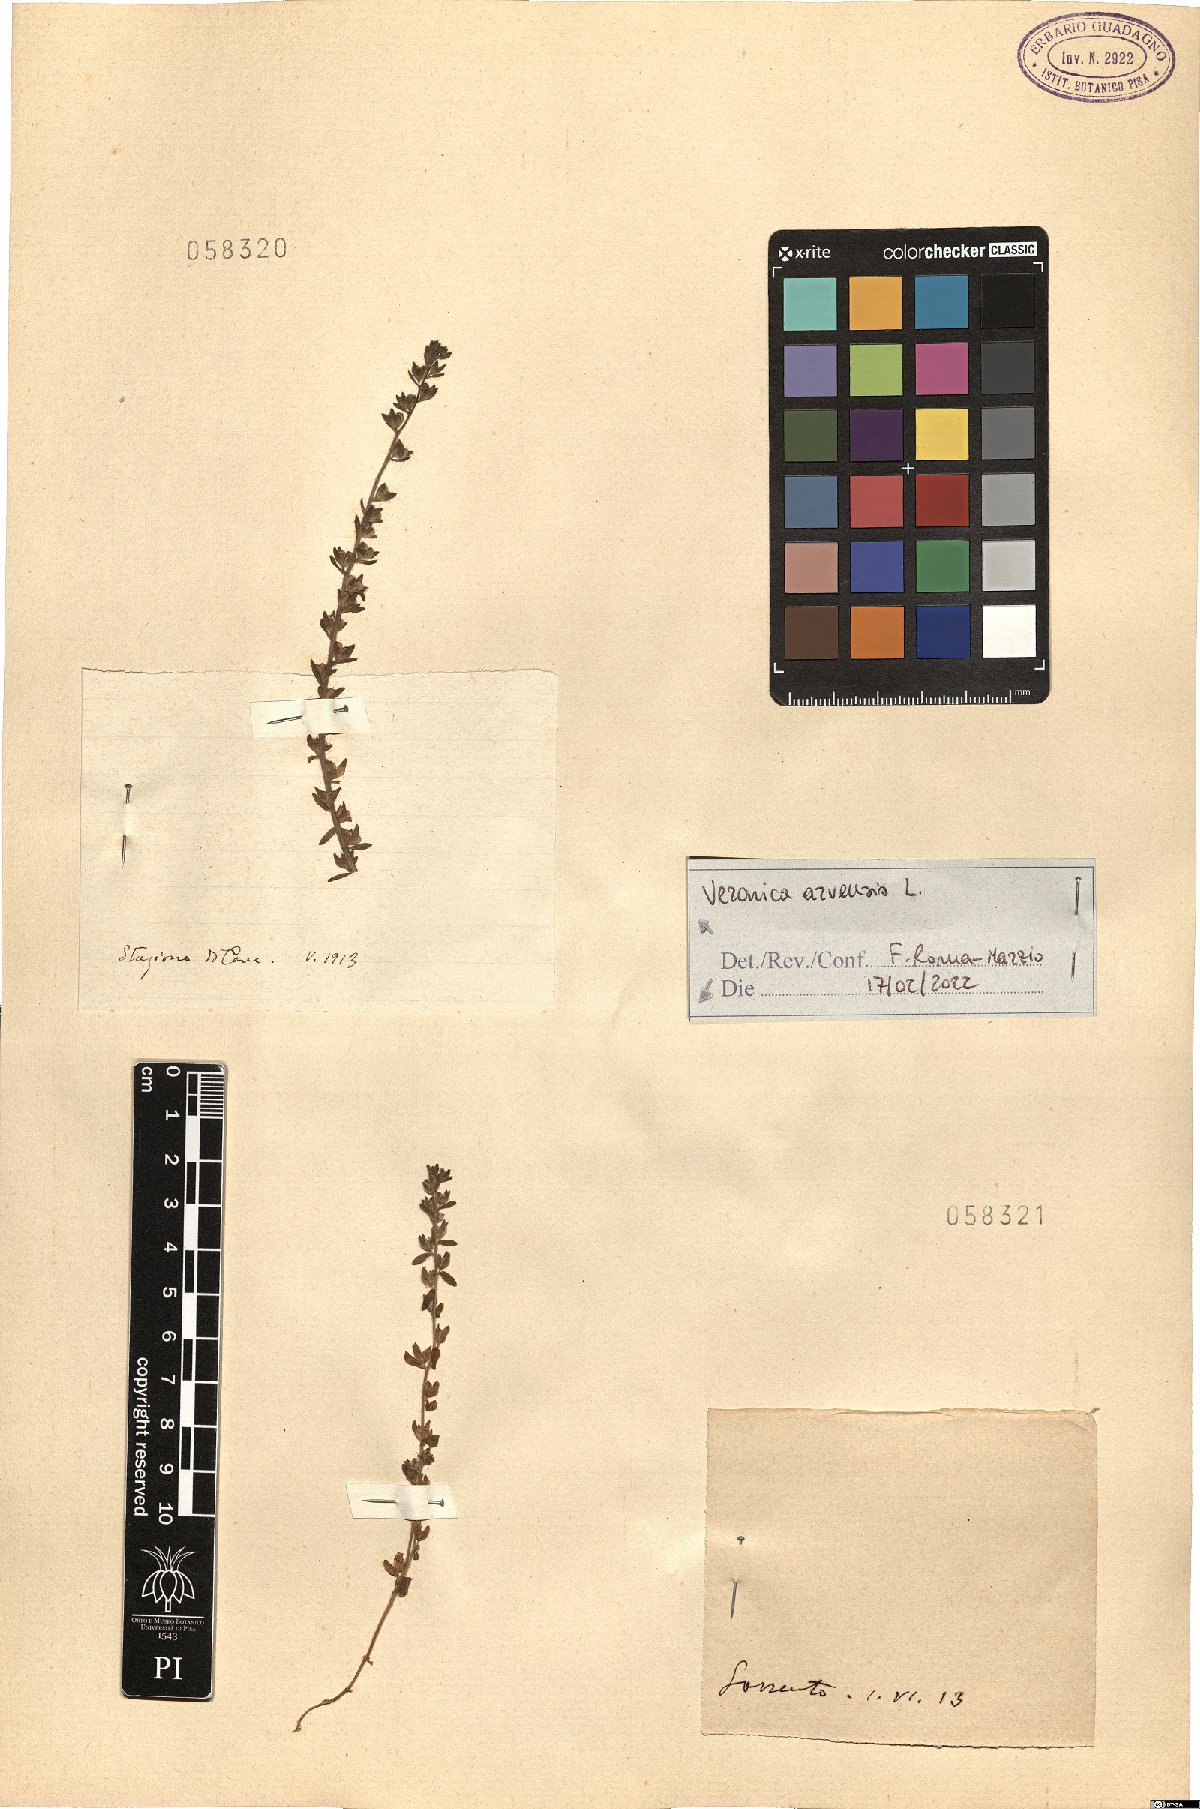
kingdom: Plantae
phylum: Tracheophyta
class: Magnoliopsida
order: Lamiales
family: Plantaginaceae
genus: Veronica
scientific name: Veronica
